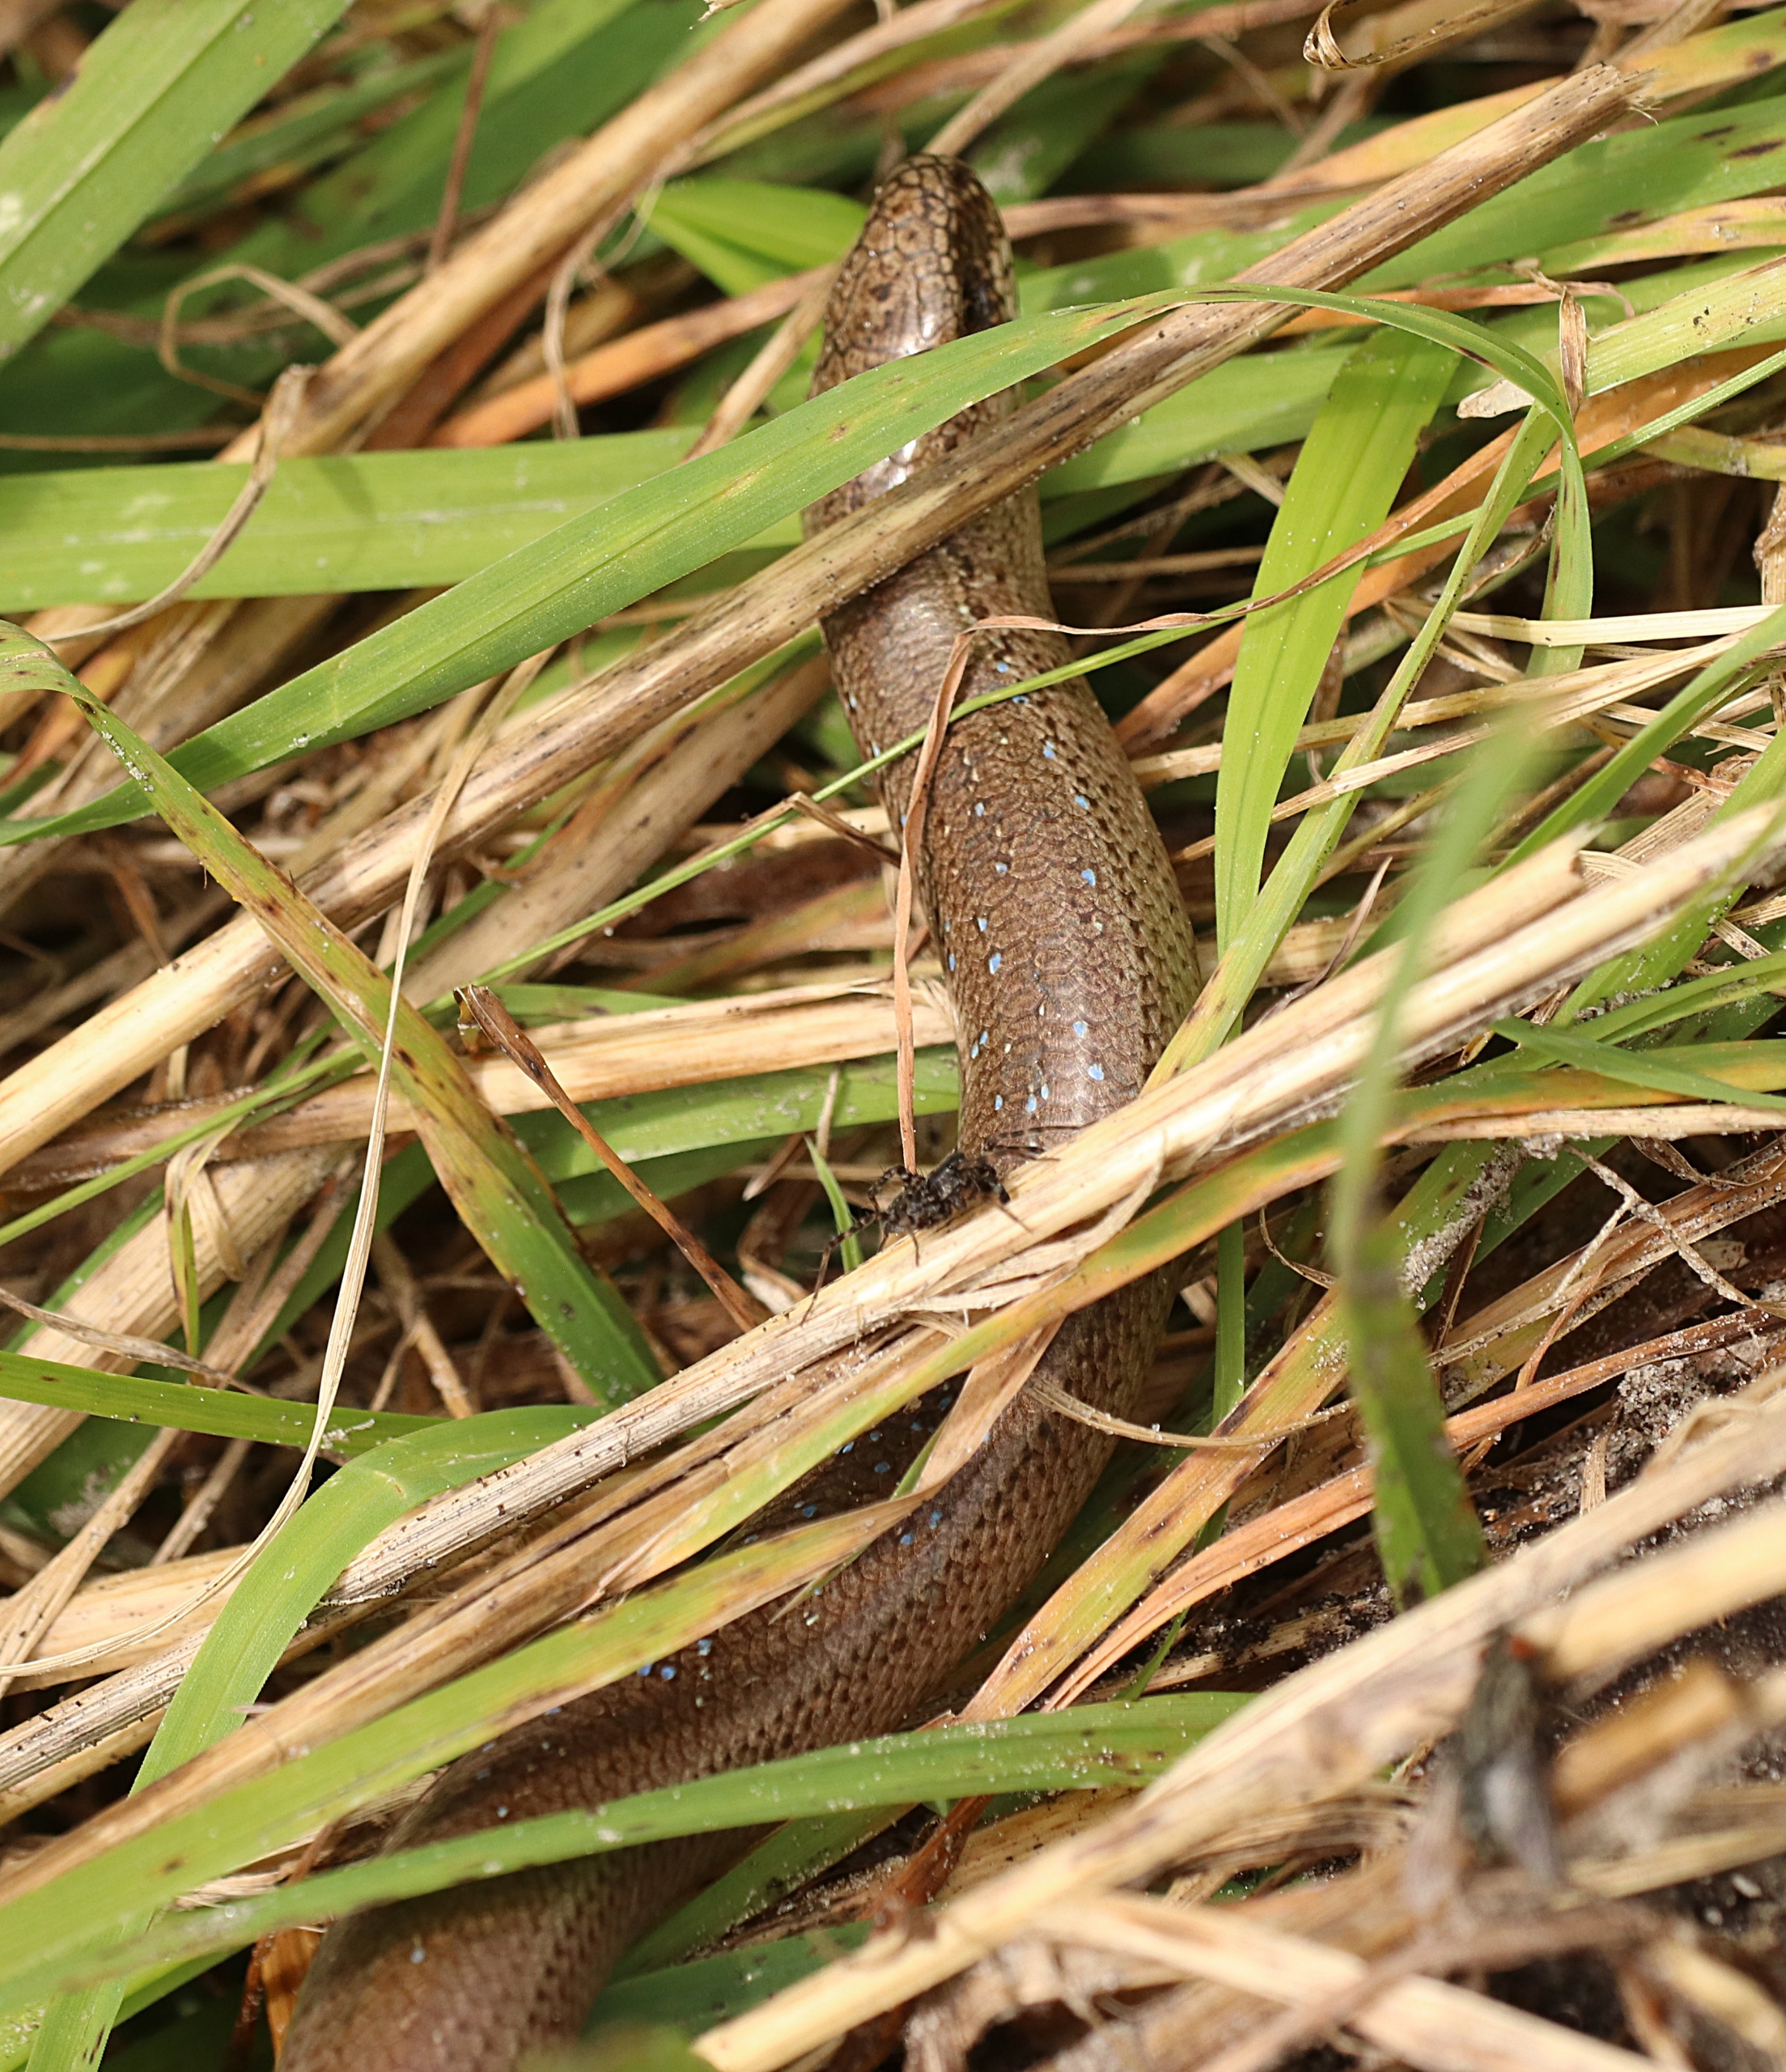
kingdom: Animalia
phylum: Chordata
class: Squamata
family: Anguidae
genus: Anguis
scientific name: Anguis fragilis
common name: Stålorm
